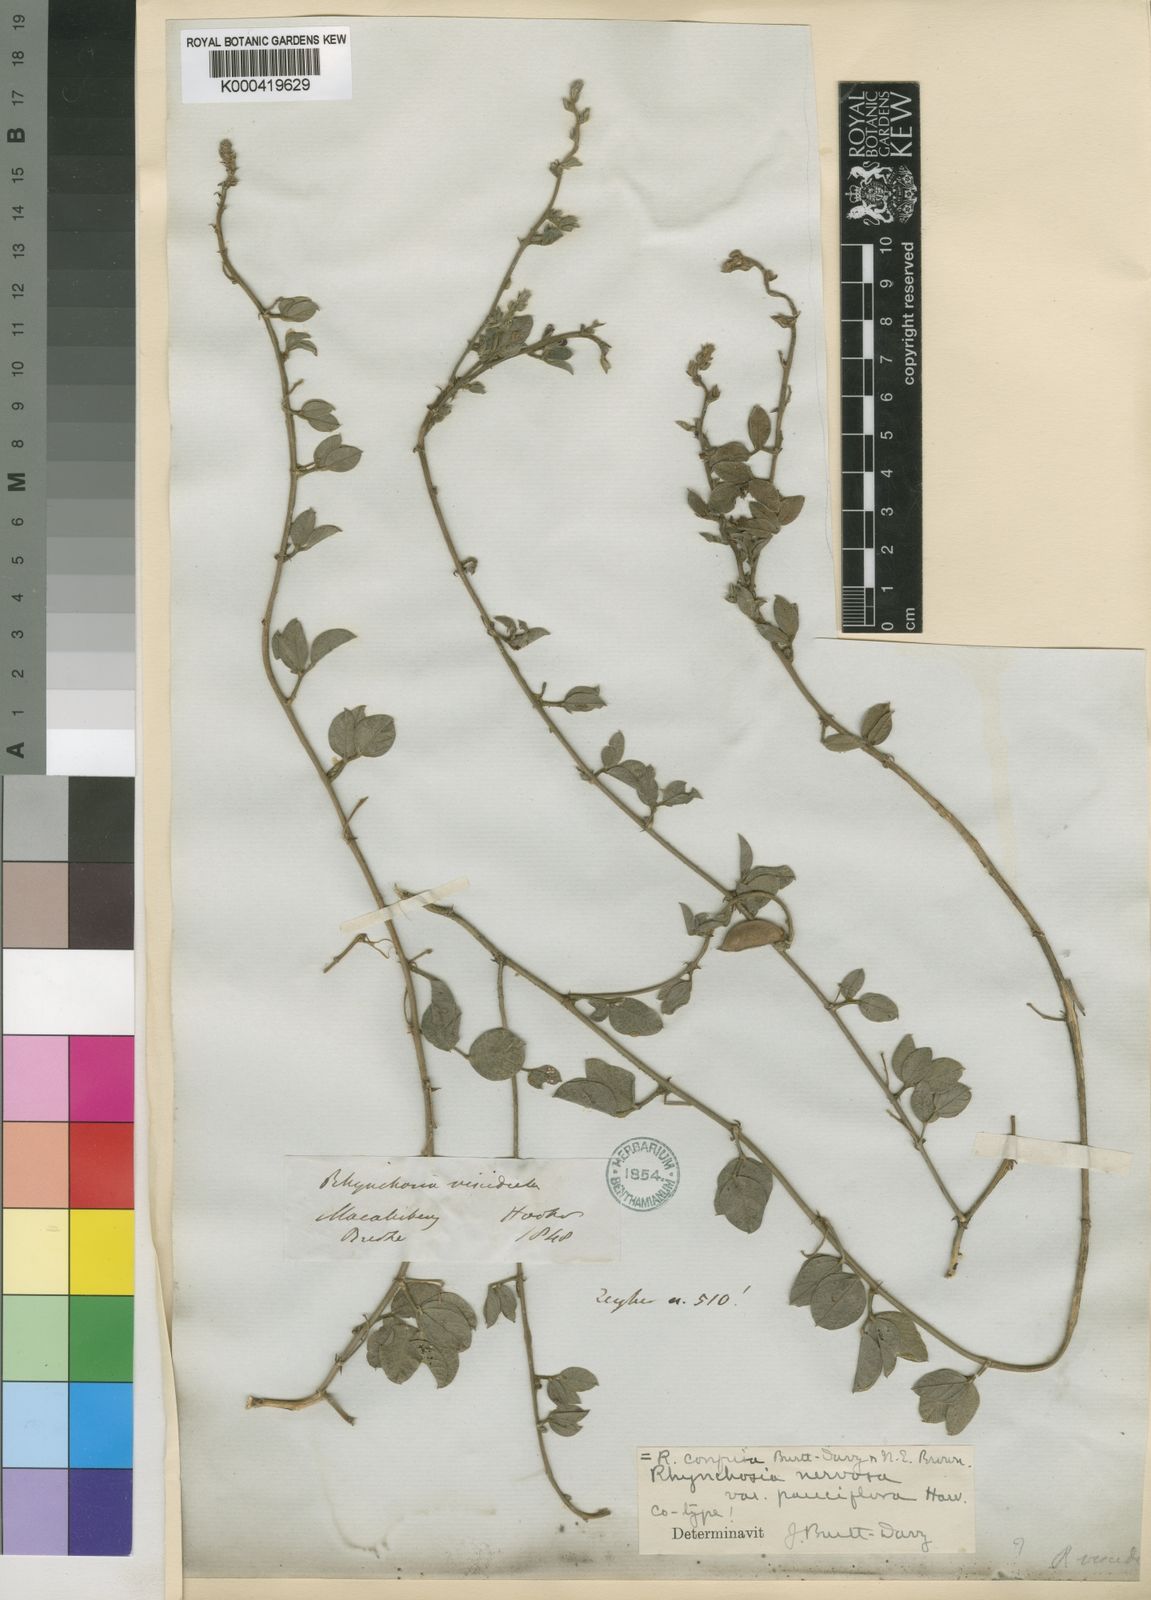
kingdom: Plantae
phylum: Tracheophyta
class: Magnoliopsida
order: Fabales
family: Fabaceae
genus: Rhynchosia
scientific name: Rhynchosia fleckii
